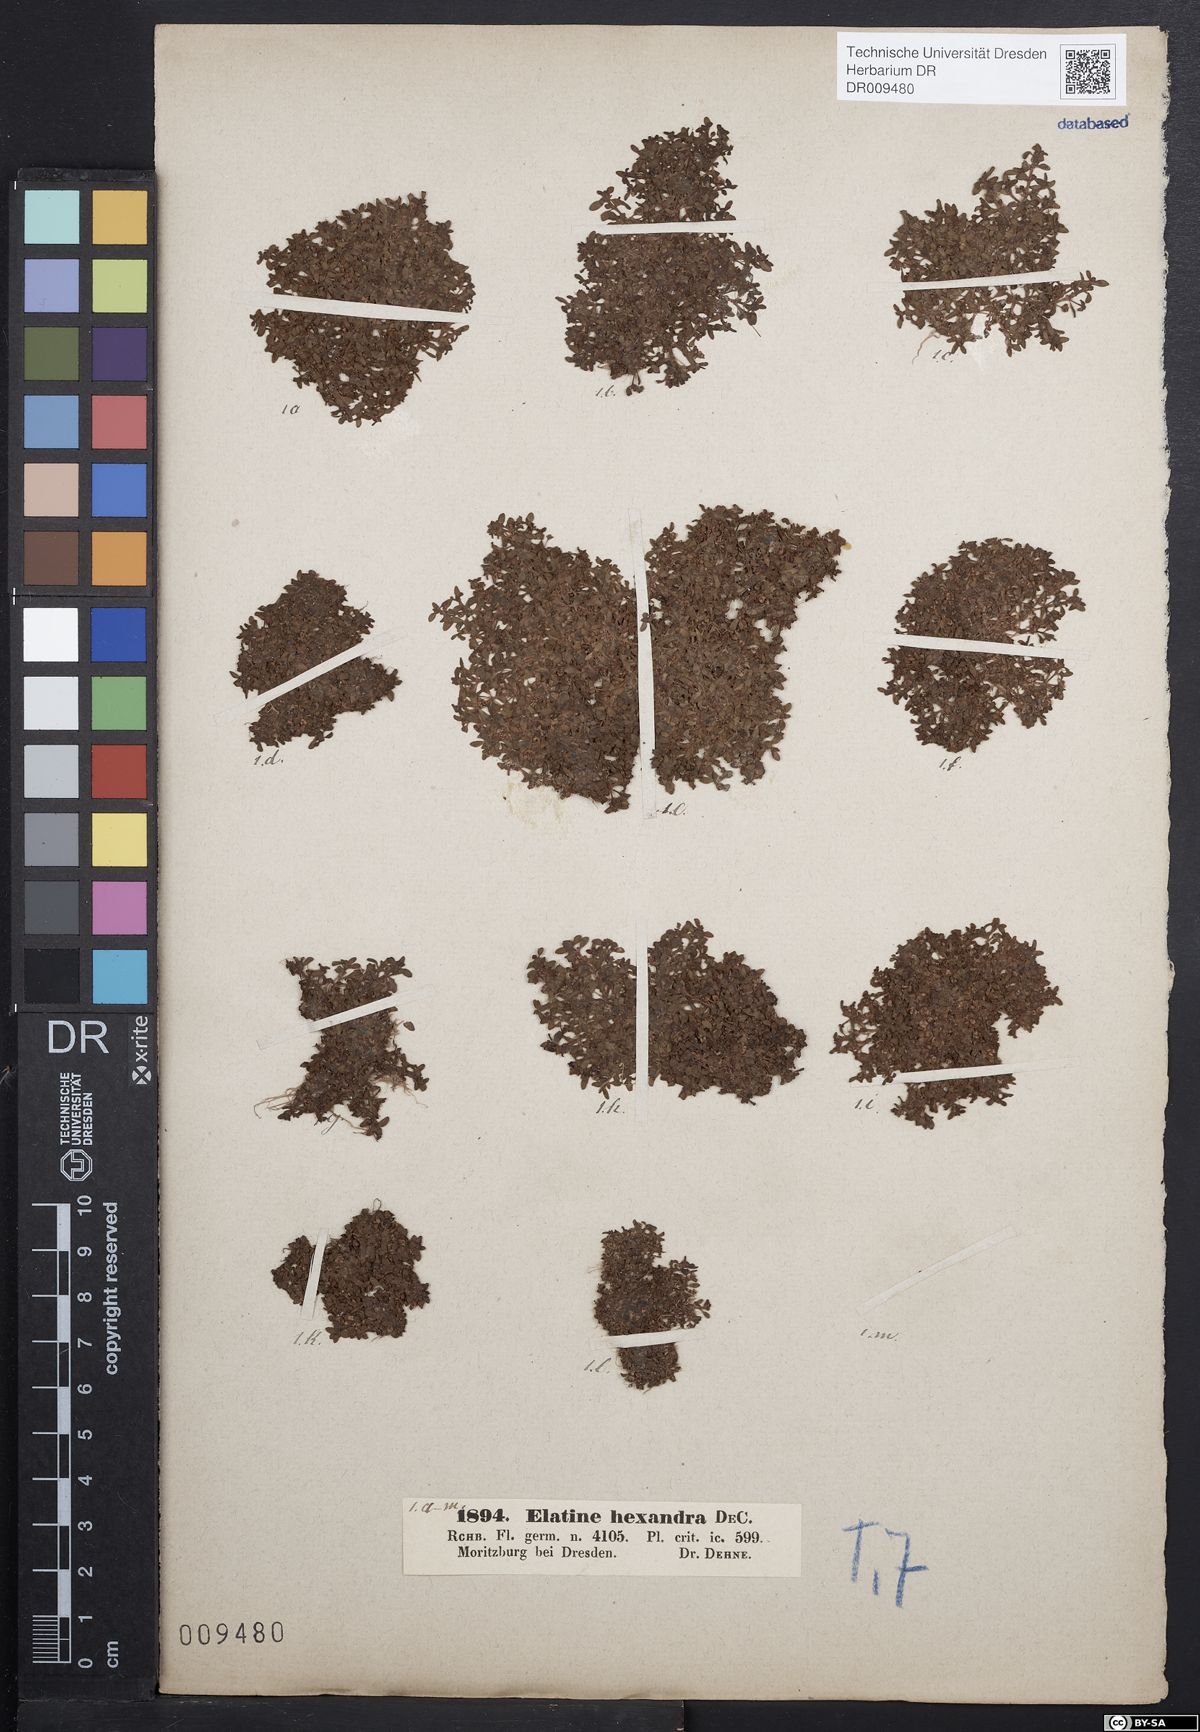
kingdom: Plantae
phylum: Tracheophyta
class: Magnoliopsida
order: Malpighiales
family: Elatinaceae
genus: Elatine
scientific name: Elatine hexandra
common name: Six-stamened waterwort
